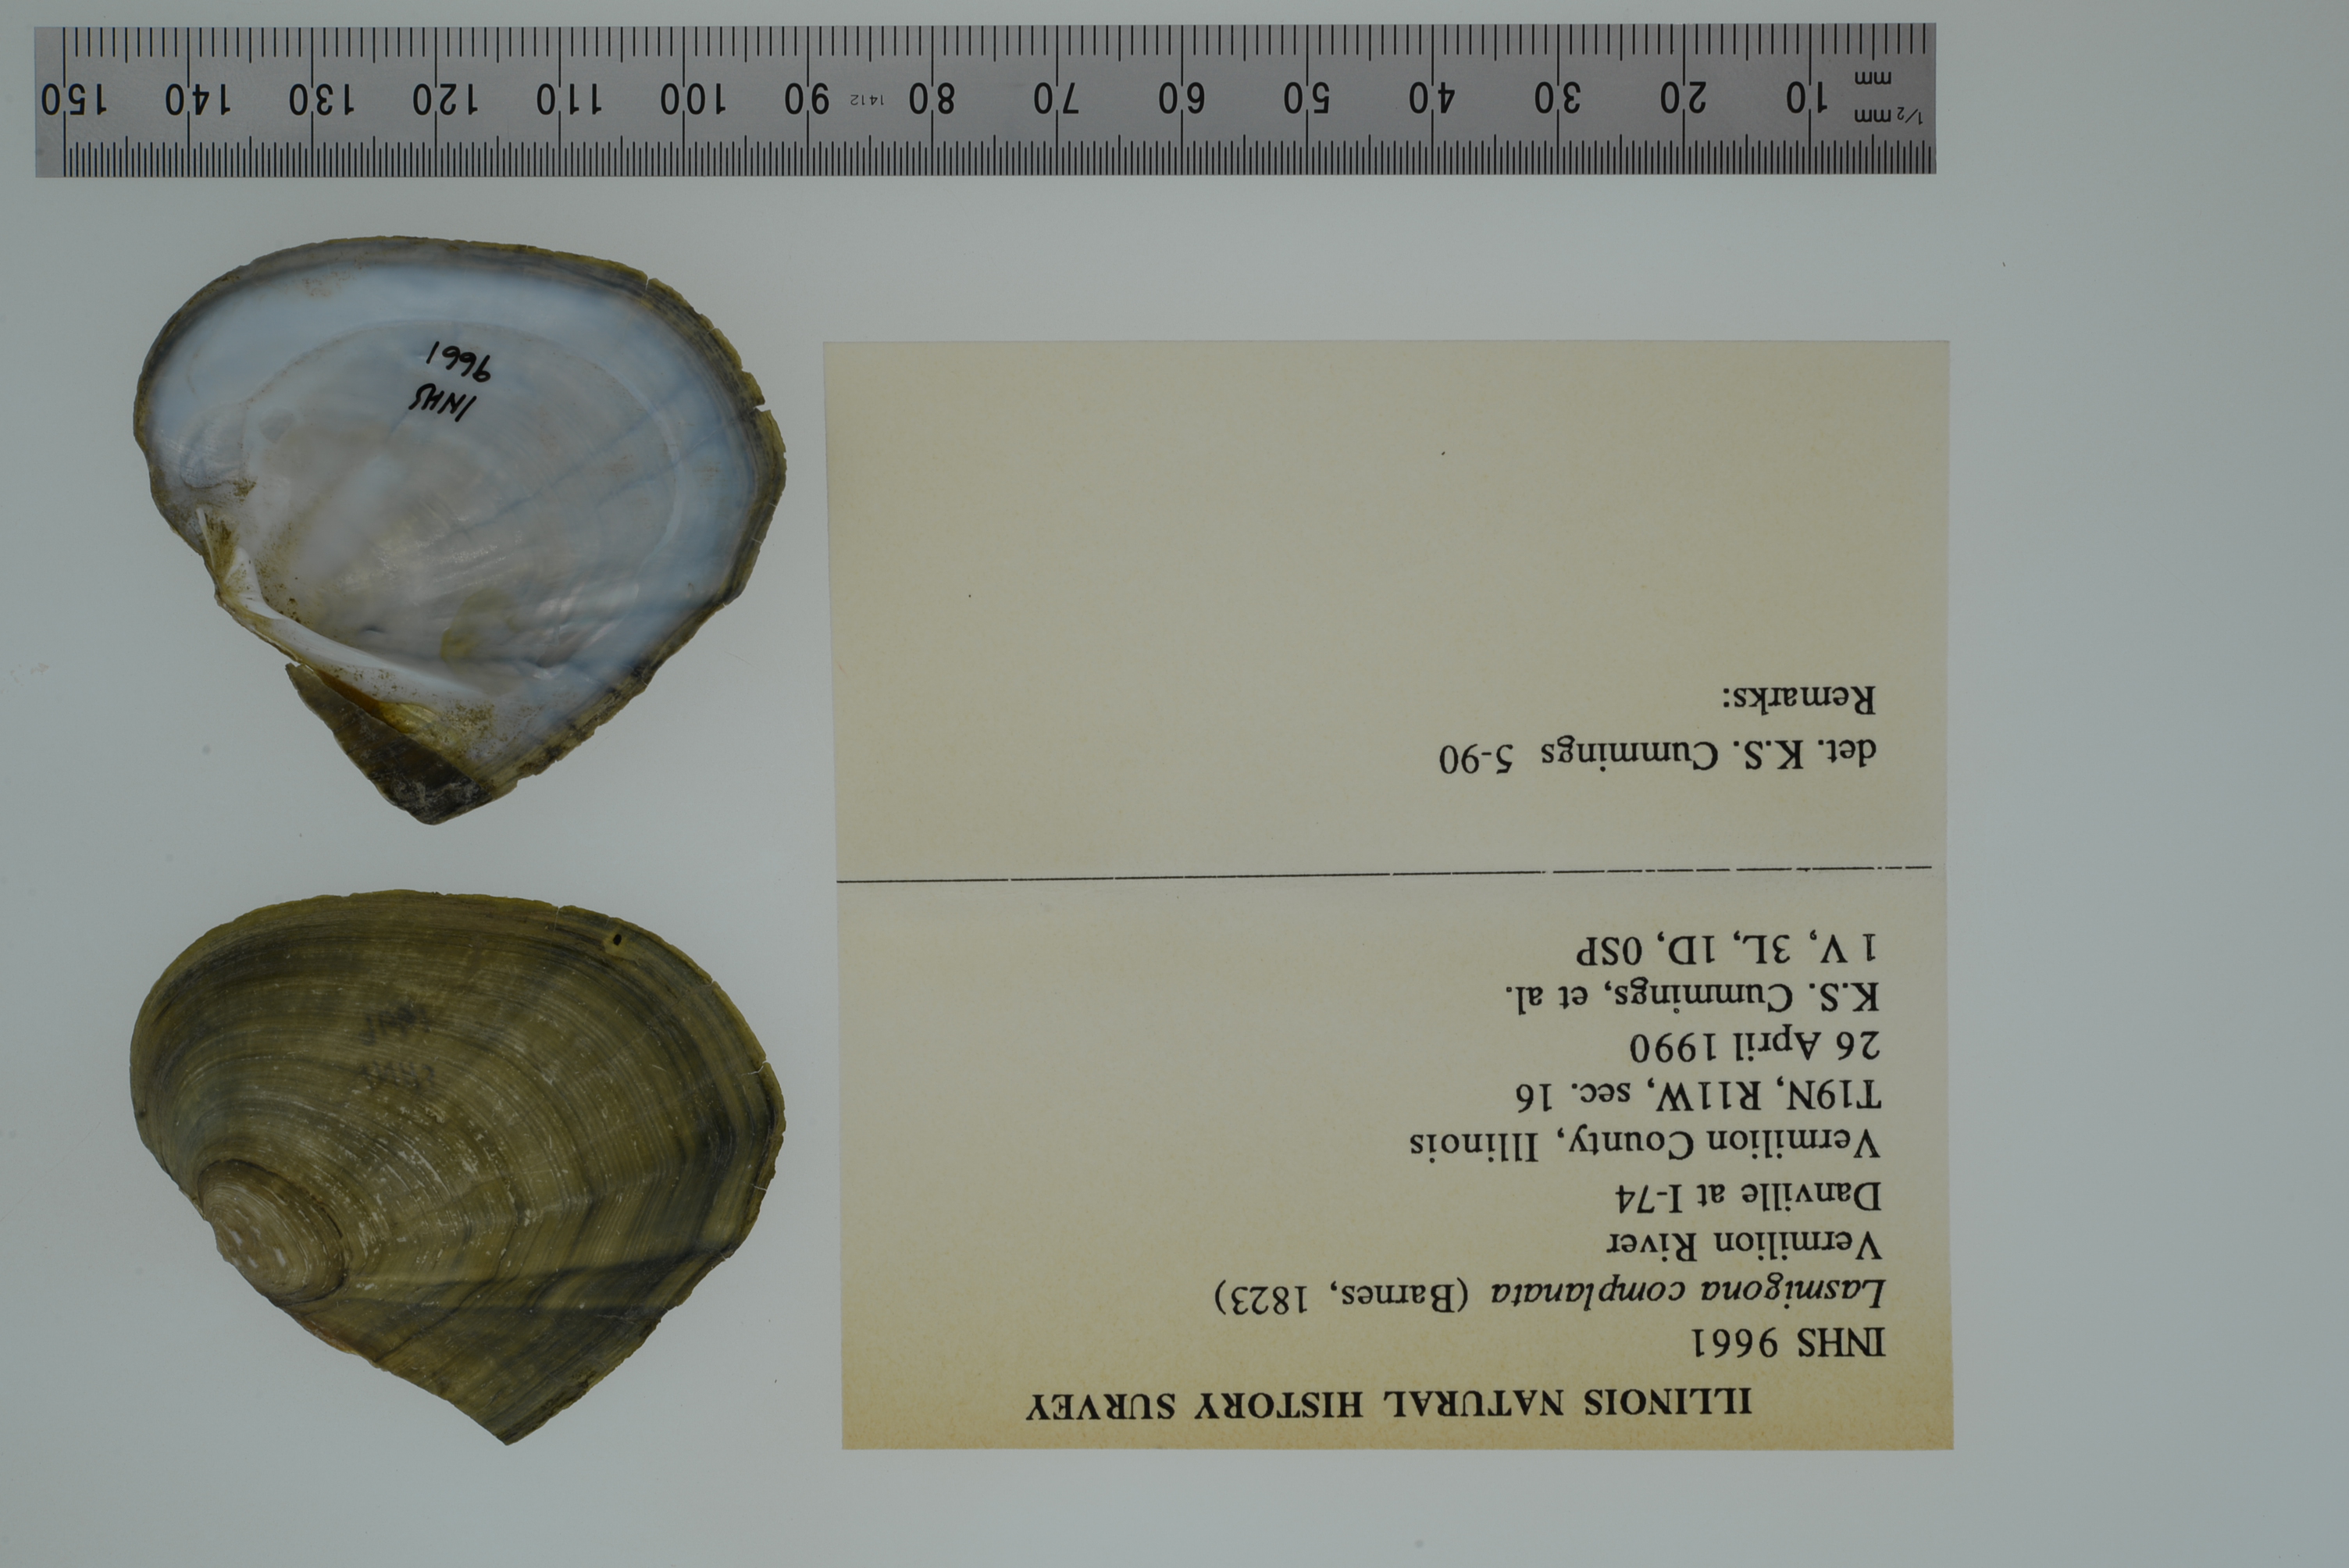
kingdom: Animalia
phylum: Mollusca
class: Bivalvia
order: Unionida
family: Unionidae
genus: Lasmigona
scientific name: Lasmigona complanata
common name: White heelsplitter
